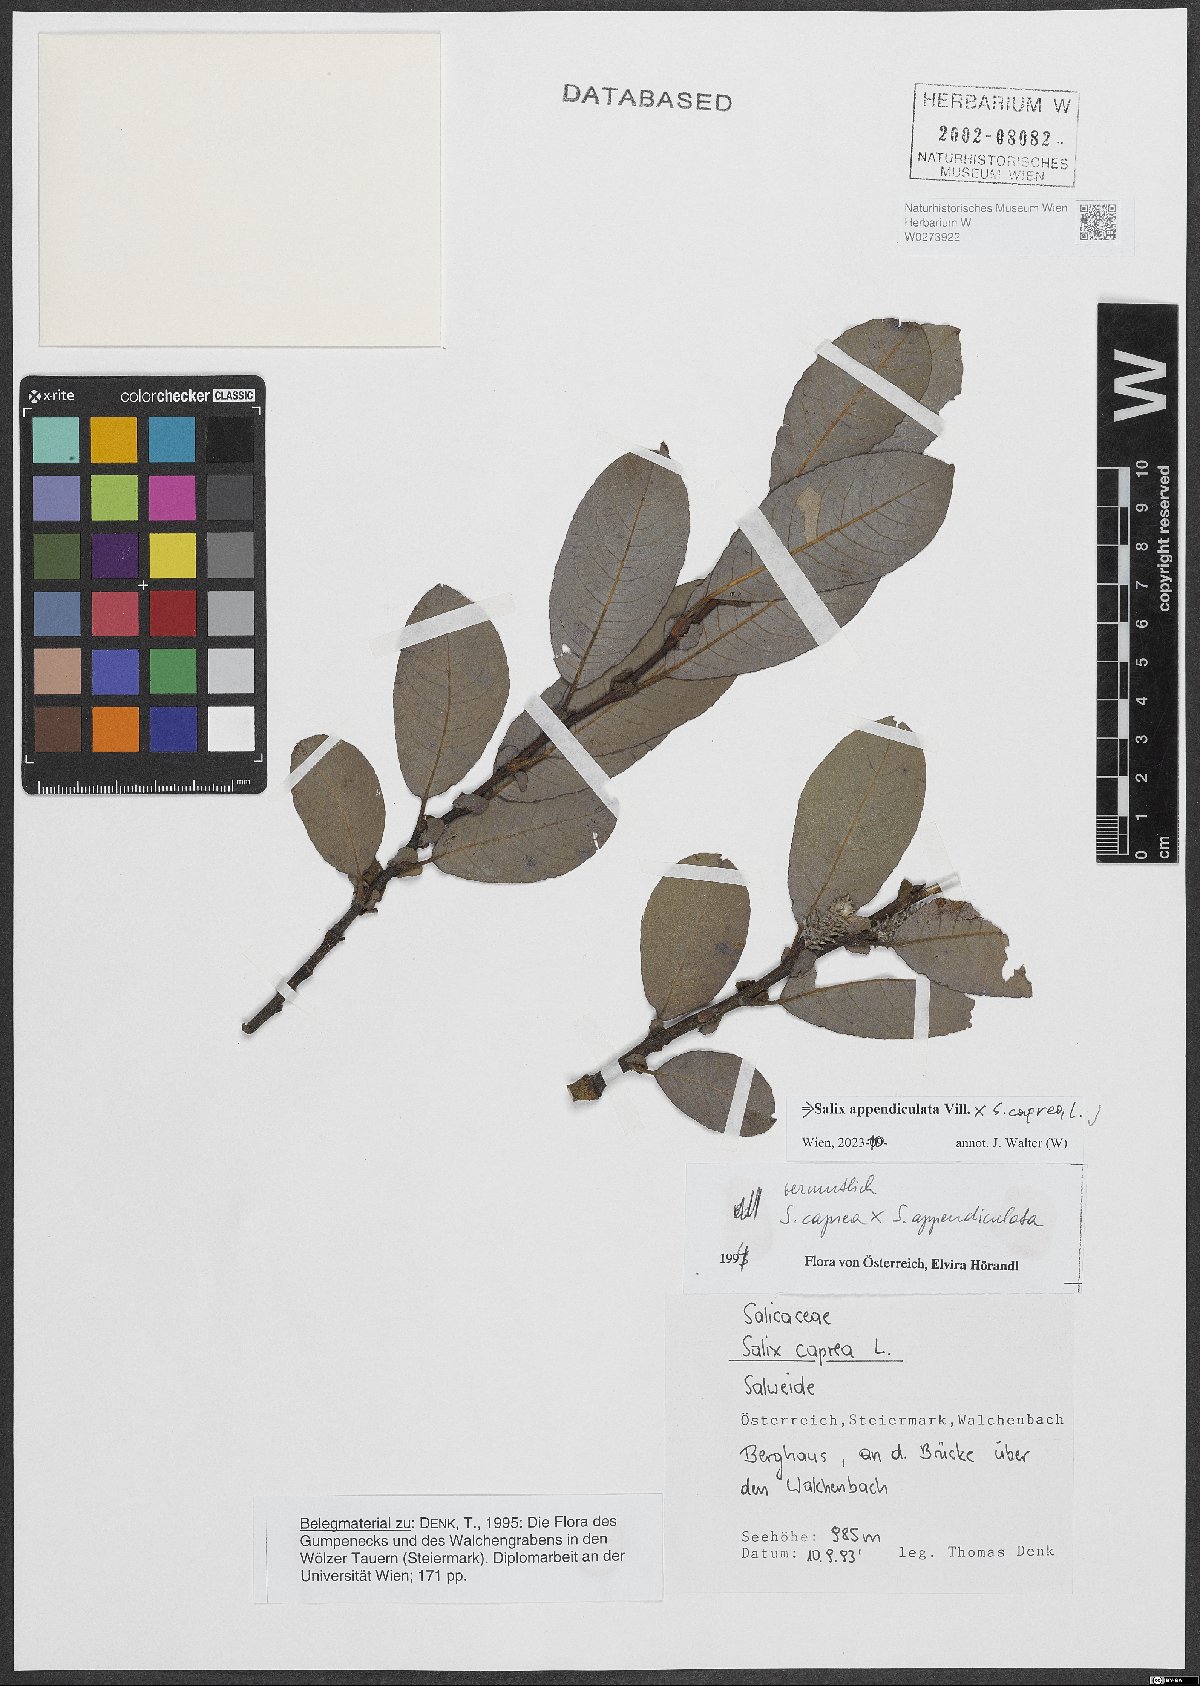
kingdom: Plantae
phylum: Tracheophyta
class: Magnoliopsida
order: Malpighiales
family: Salicaceae
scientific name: Salicaceae
